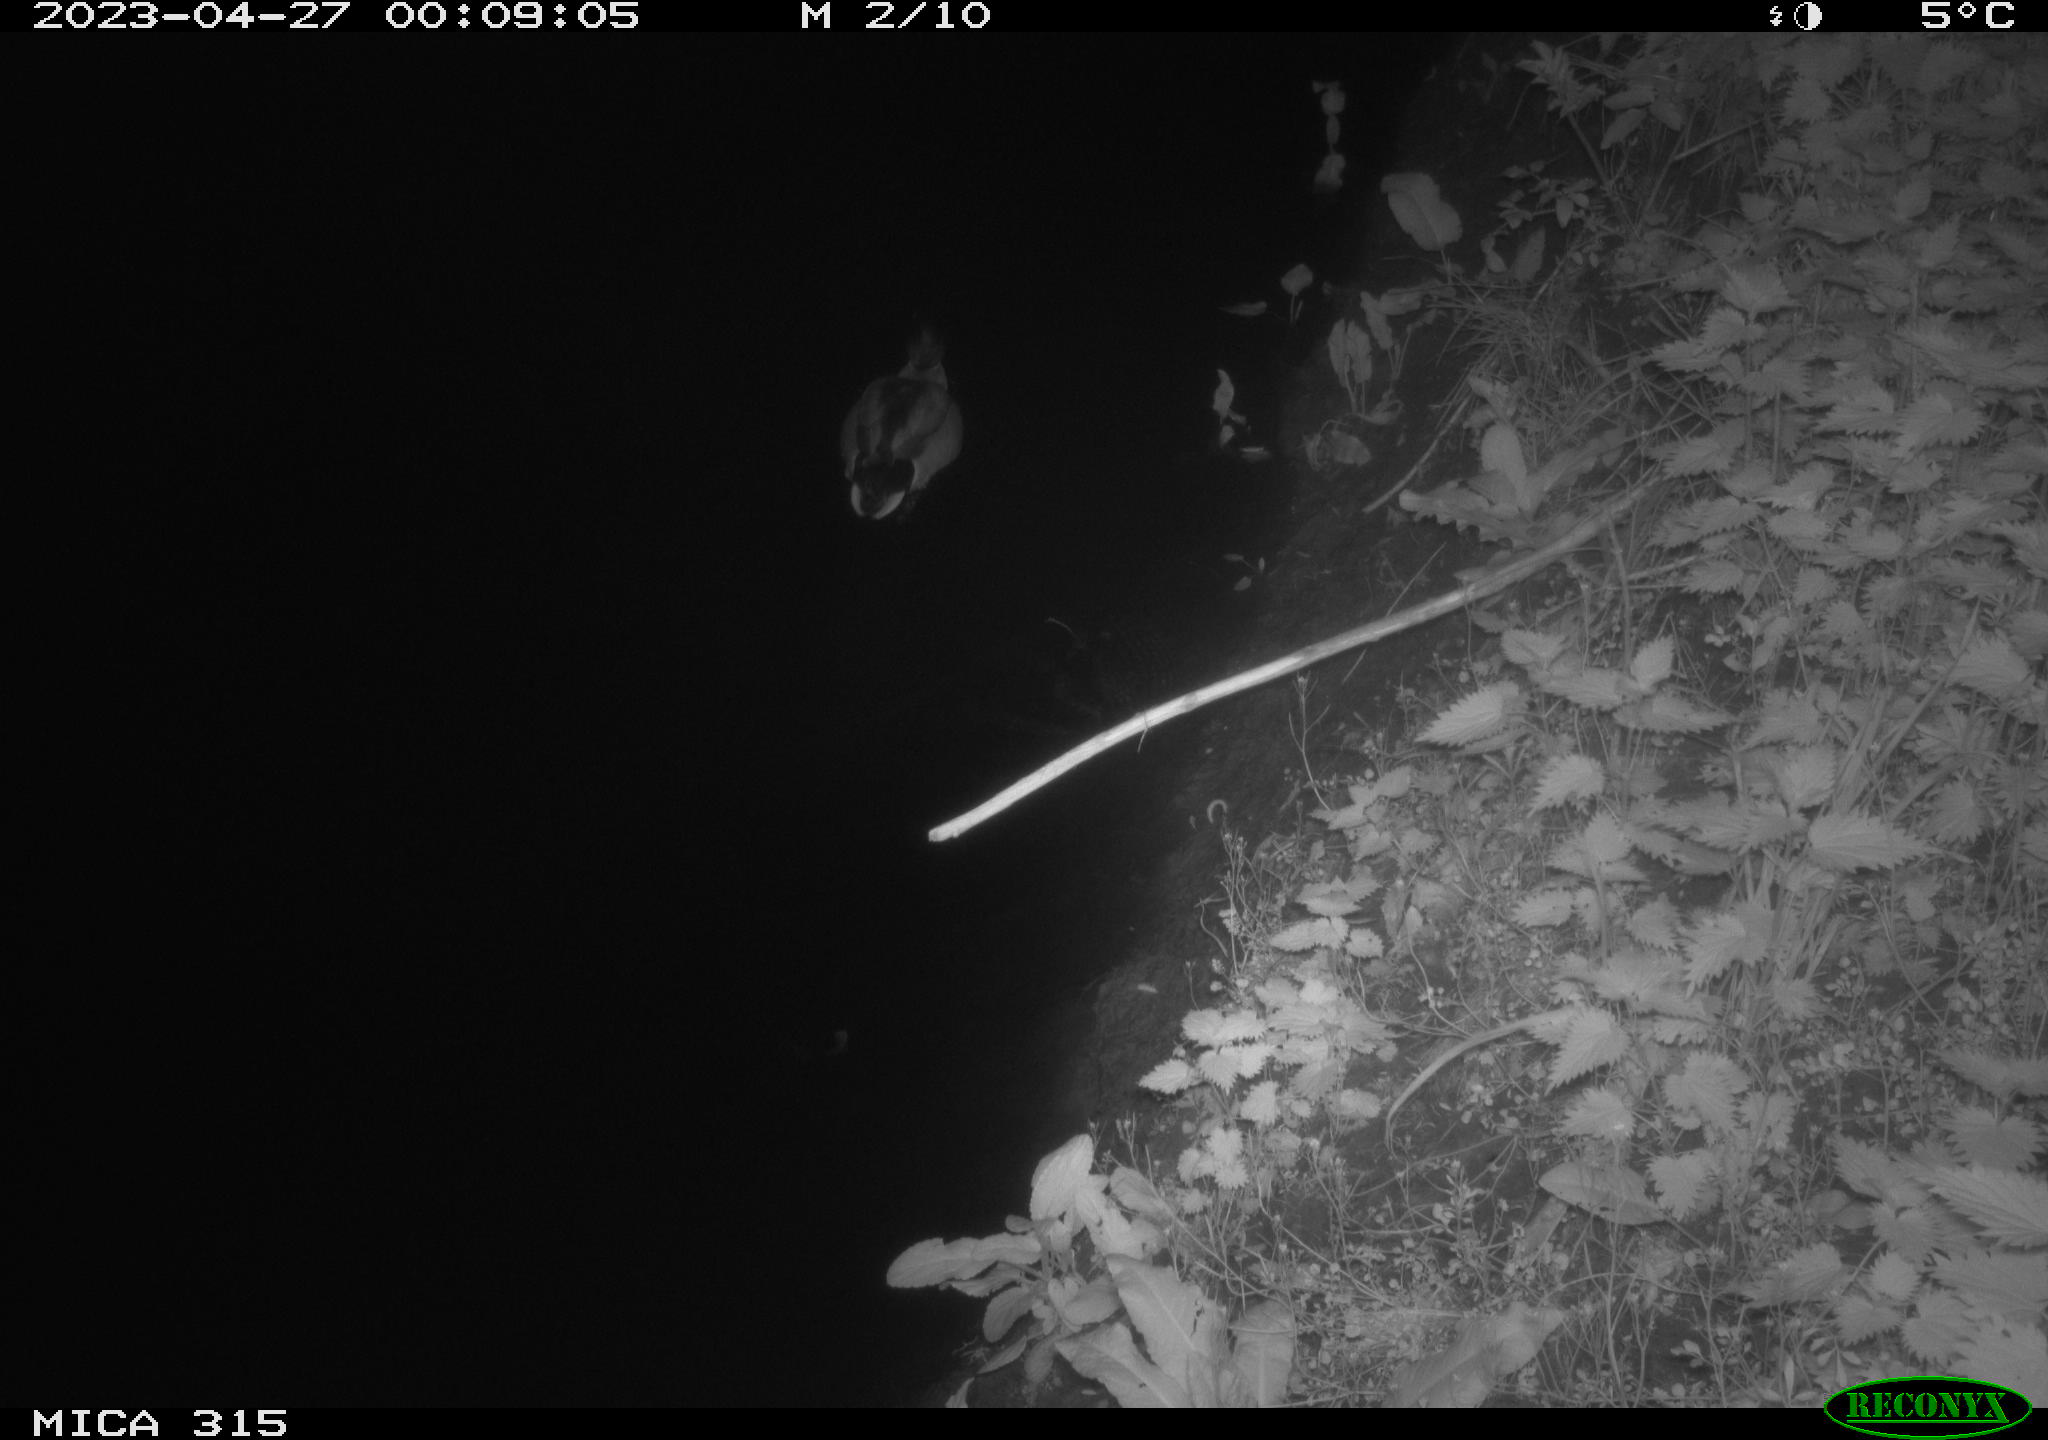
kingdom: Animalia
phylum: Chordata
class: Aves
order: Anseriformes
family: Anatidae
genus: Anas
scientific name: Anas
